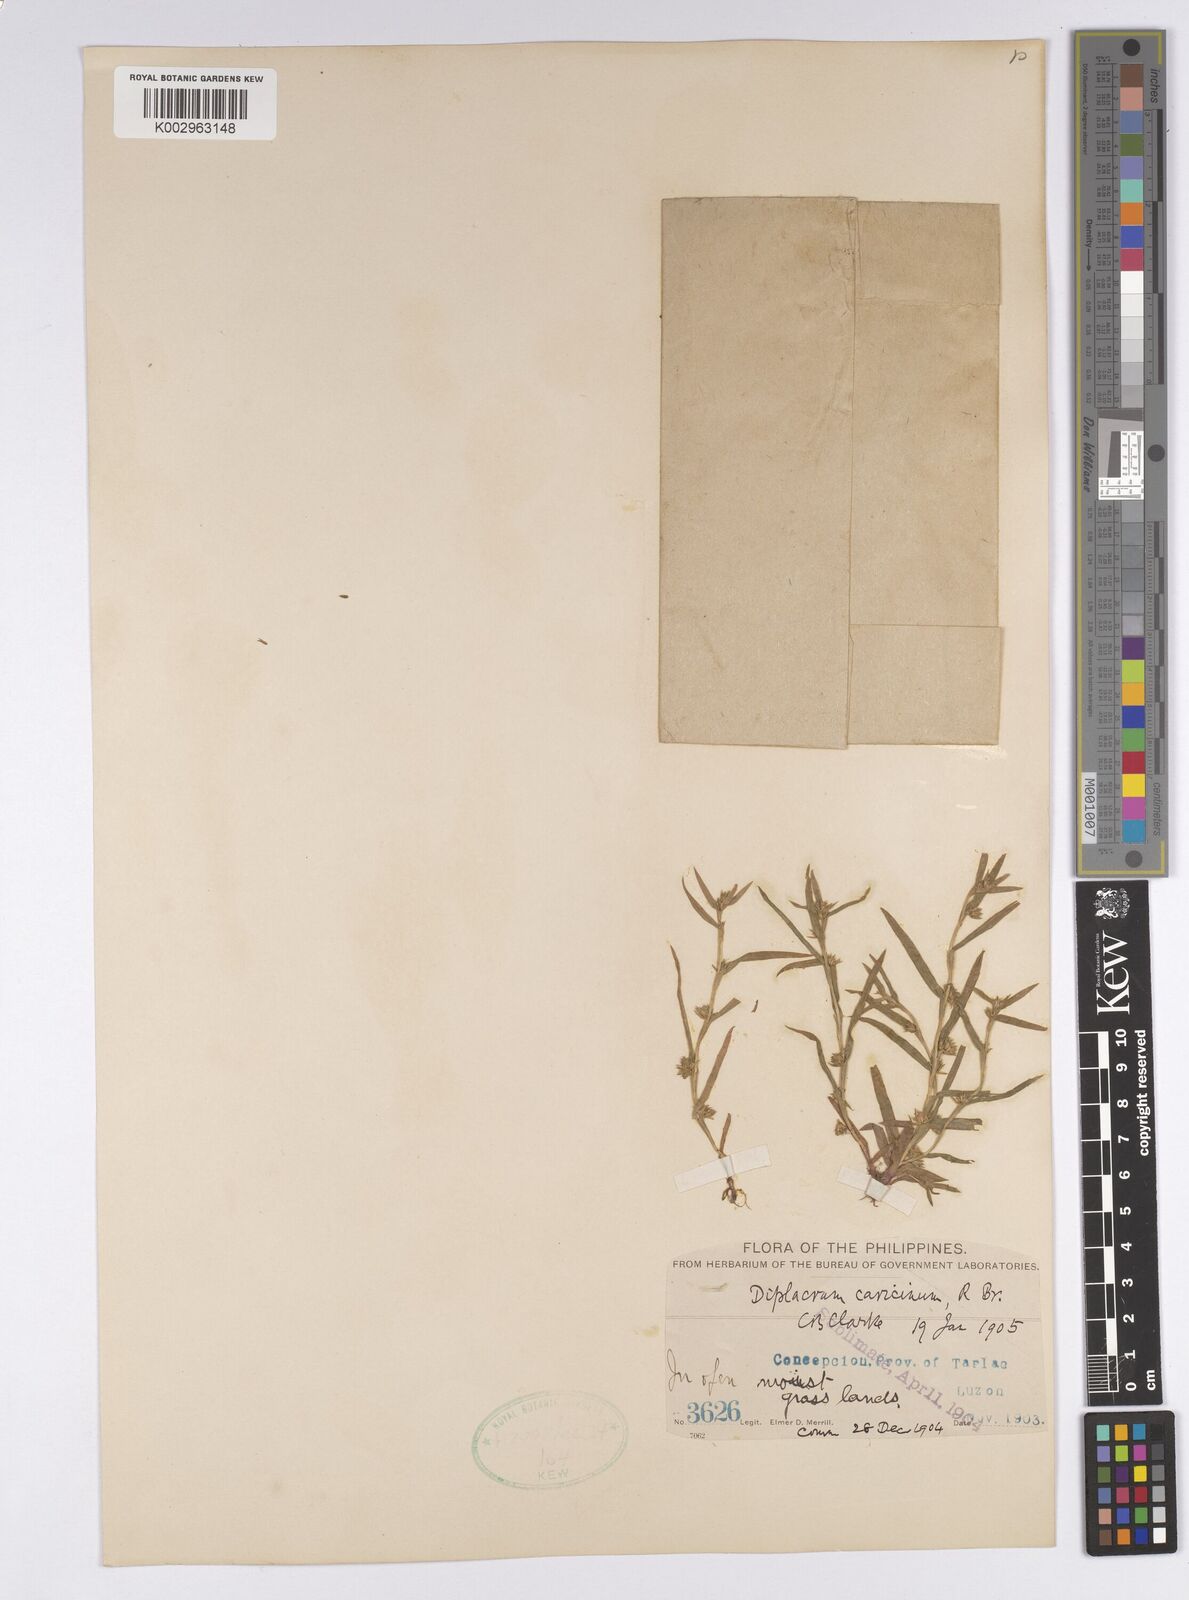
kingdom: Plantae
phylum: Tracheophyta
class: Liliopsida
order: Poales
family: Cyperaceae
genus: Diplacrum
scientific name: Diplacrum caricinum
